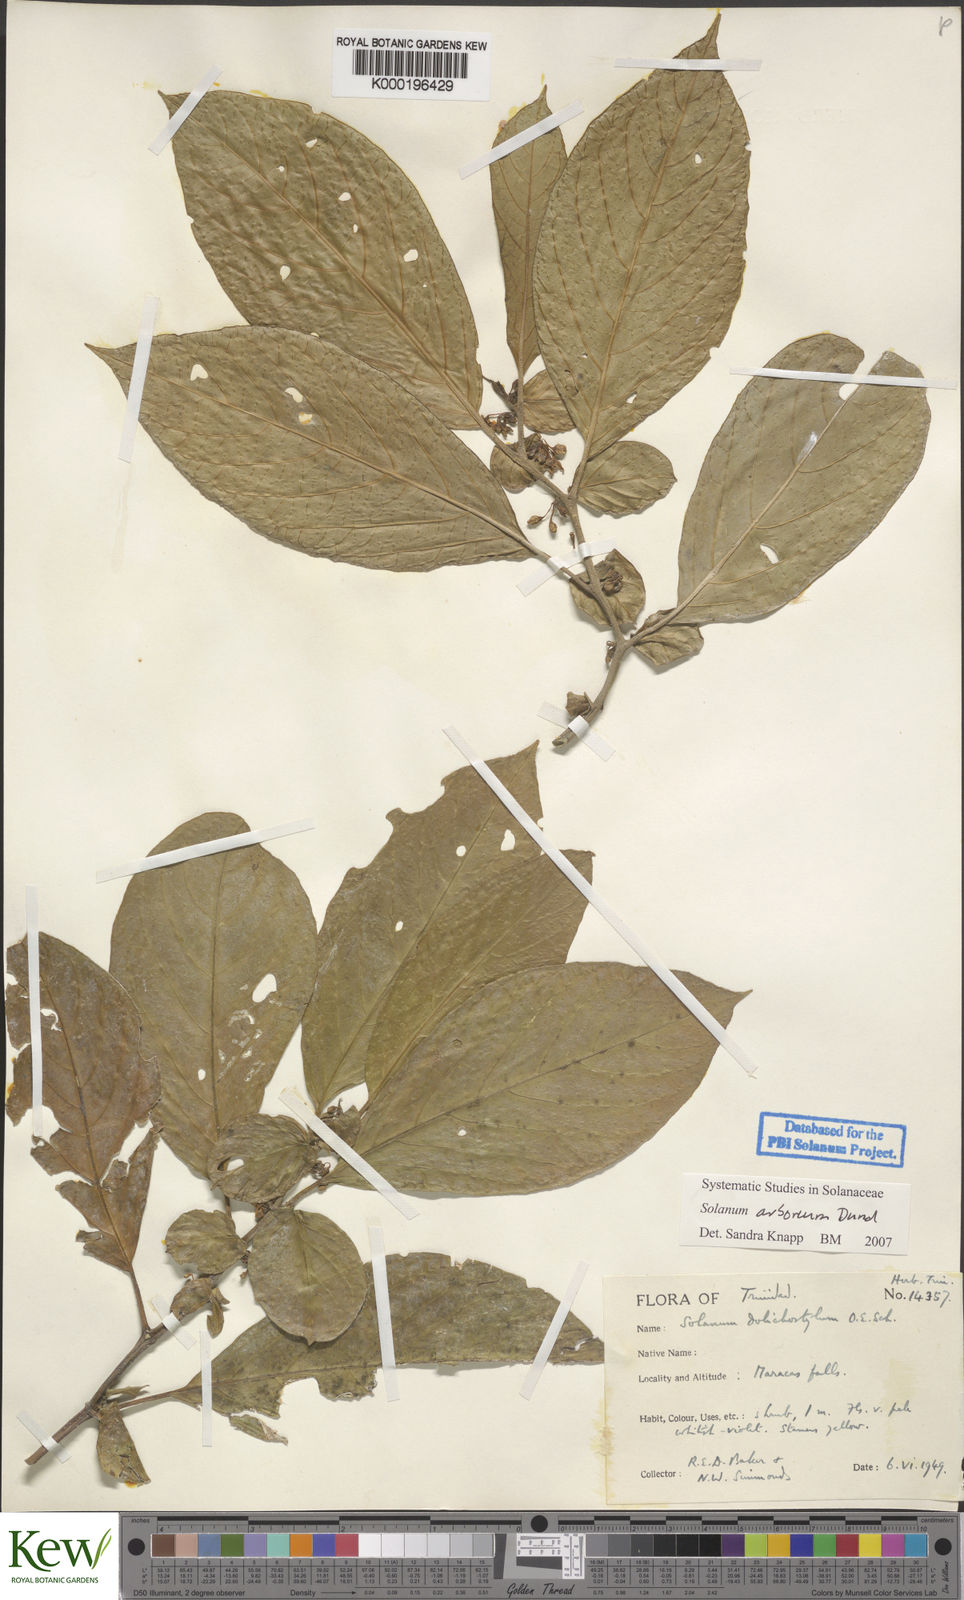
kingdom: Plantae
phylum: Tracheophyta
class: Magnoliopsida
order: Solanales
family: Solanaceae
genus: Solanum
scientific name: Solanum arboreum
